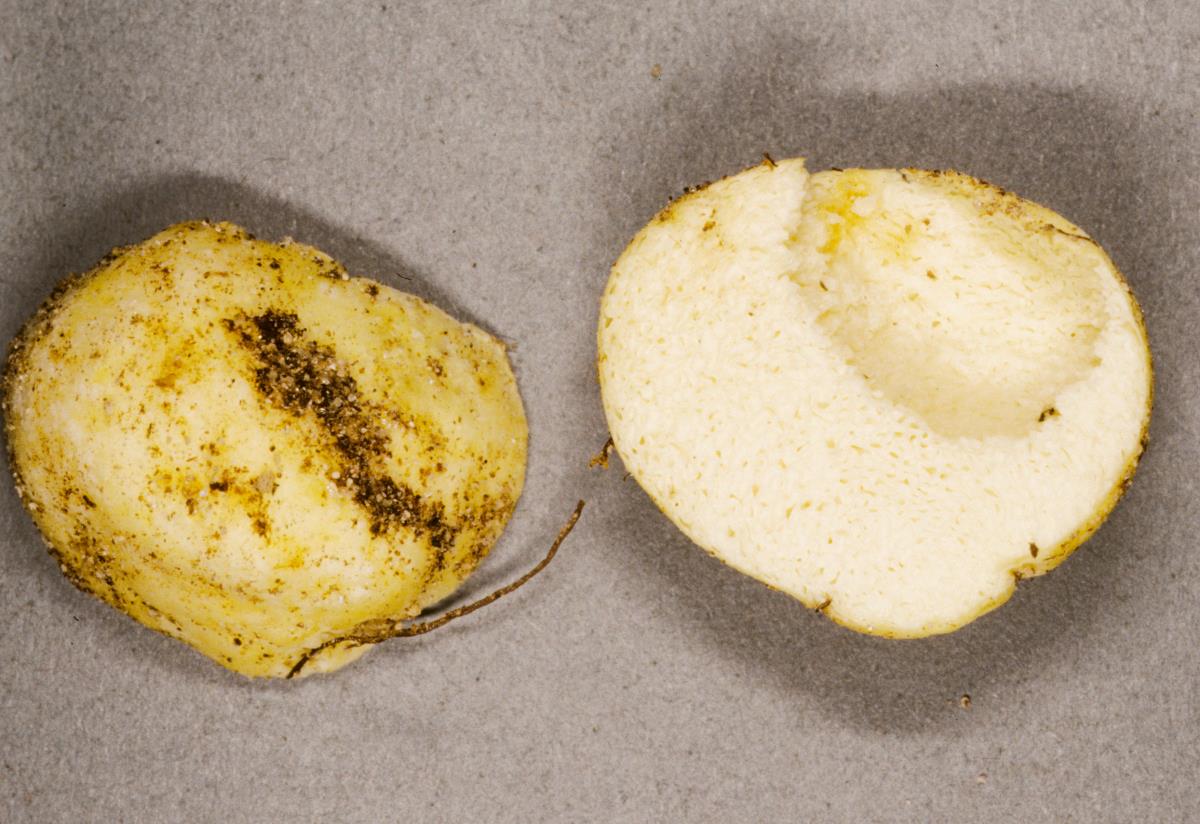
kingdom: Fungi
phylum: Basidiomycota
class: Agaricomycetes
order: Russulales
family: Russulaceae
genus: Russula
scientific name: Russula parvisaxoides
